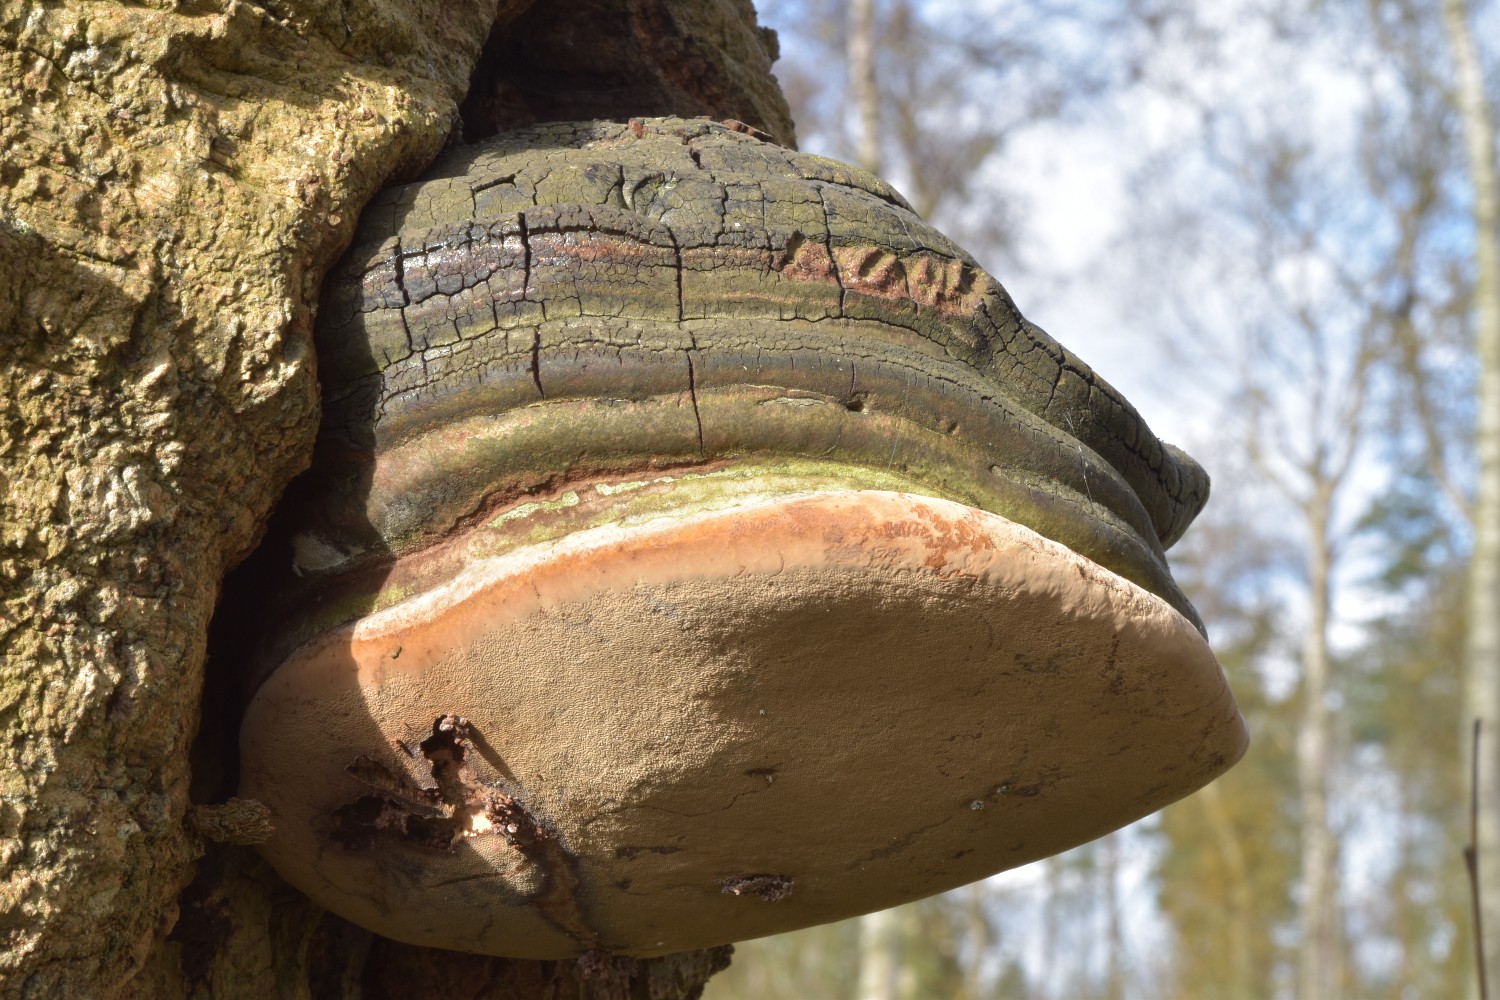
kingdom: Fungi
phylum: Basidiomycota
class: Agaricomycetes
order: Hymenochaetales
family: Hymenochaetaceae
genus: Phellinus
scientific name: Phellinus populicola
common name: poppel-ildporesvamp
